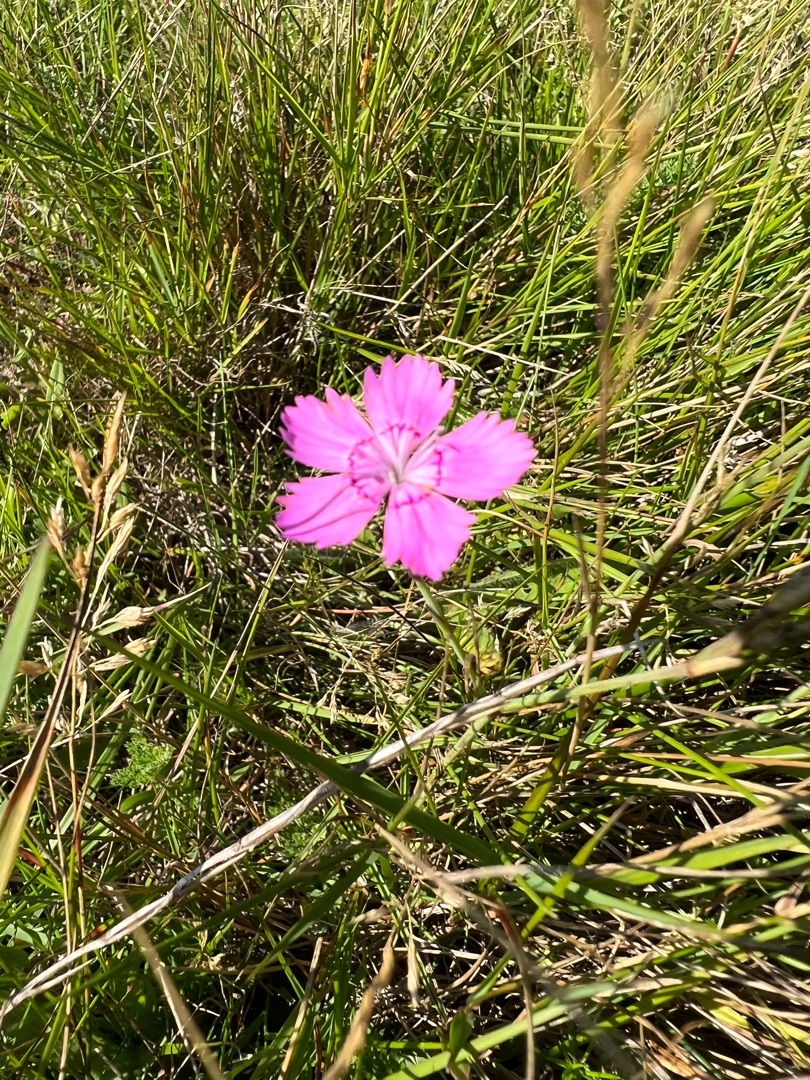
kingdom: Plantae
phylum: Tracheophyta
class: Magnoliopsida
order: Caryophyllales
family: Caryophyllaceae
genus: Dianthus
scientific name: Dianthus deltoides
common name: Bakke-nellike
